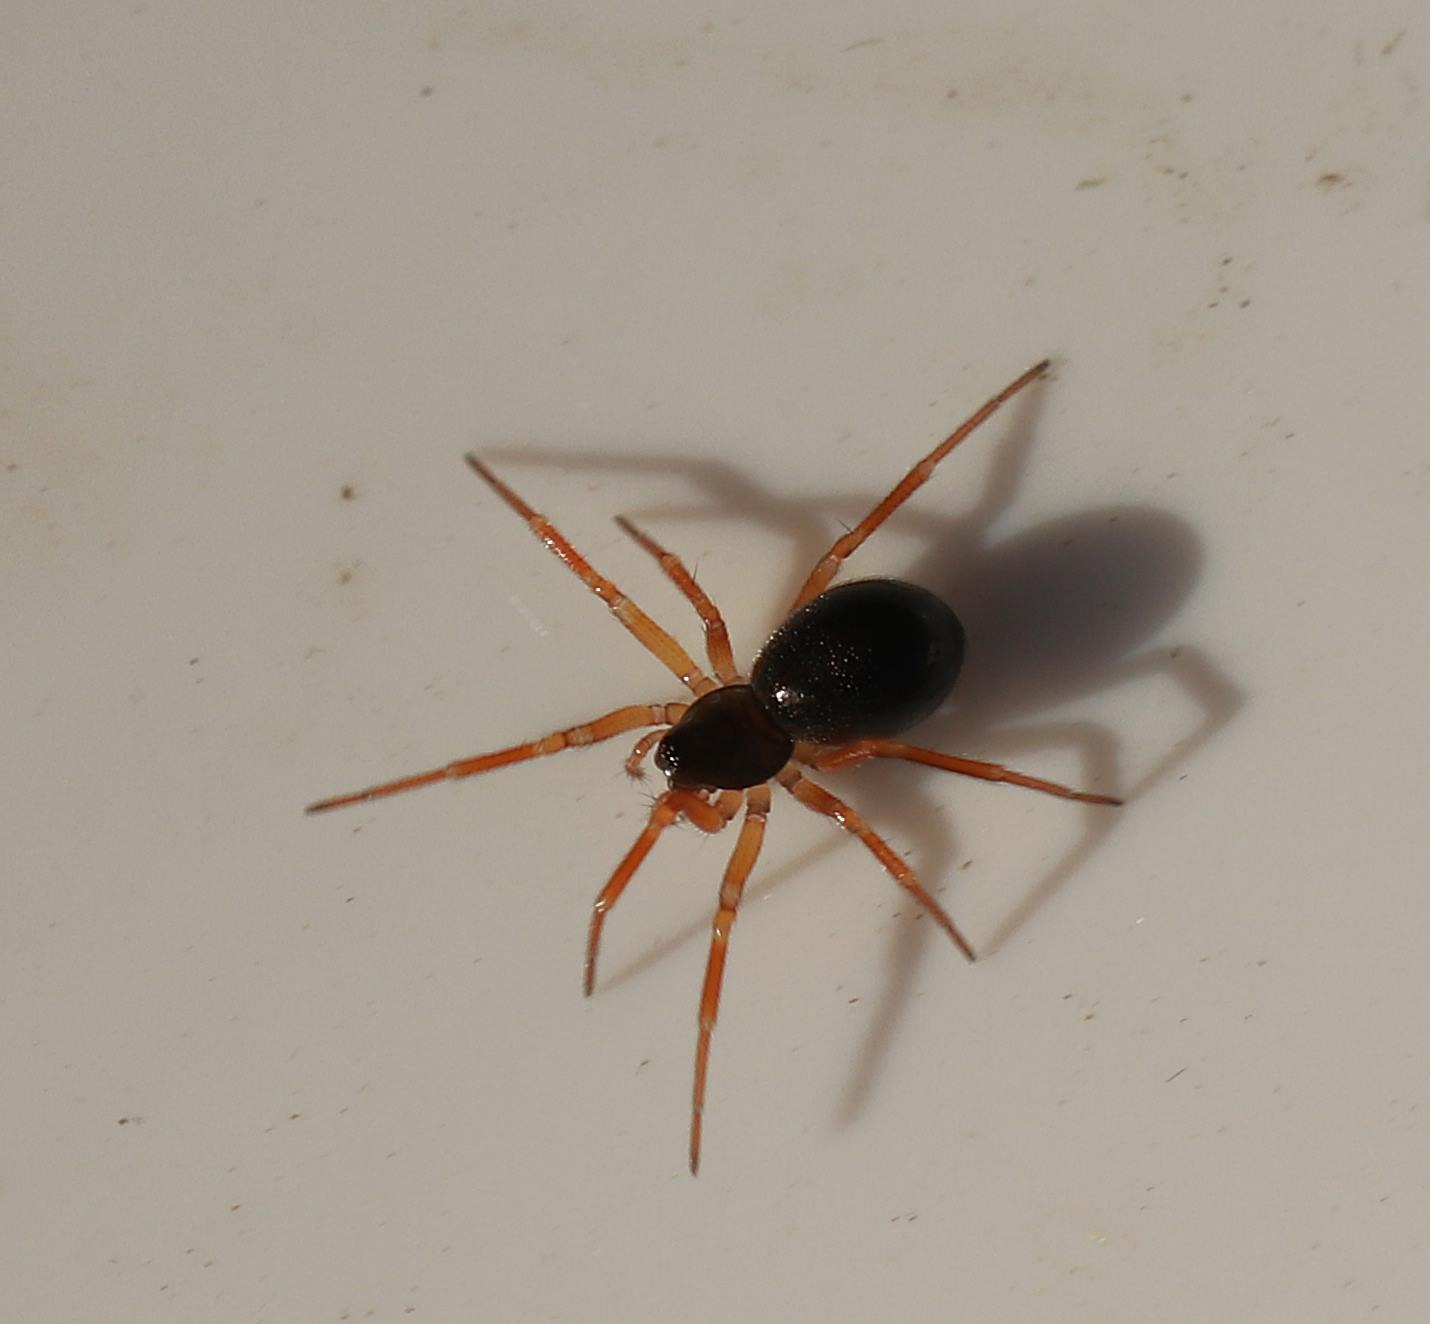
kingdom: Animalia
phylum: Arthropoda
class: Arachnida
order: Araneae
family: Linyphiidae
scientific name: Linyphiidae
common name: Tæppespindere
